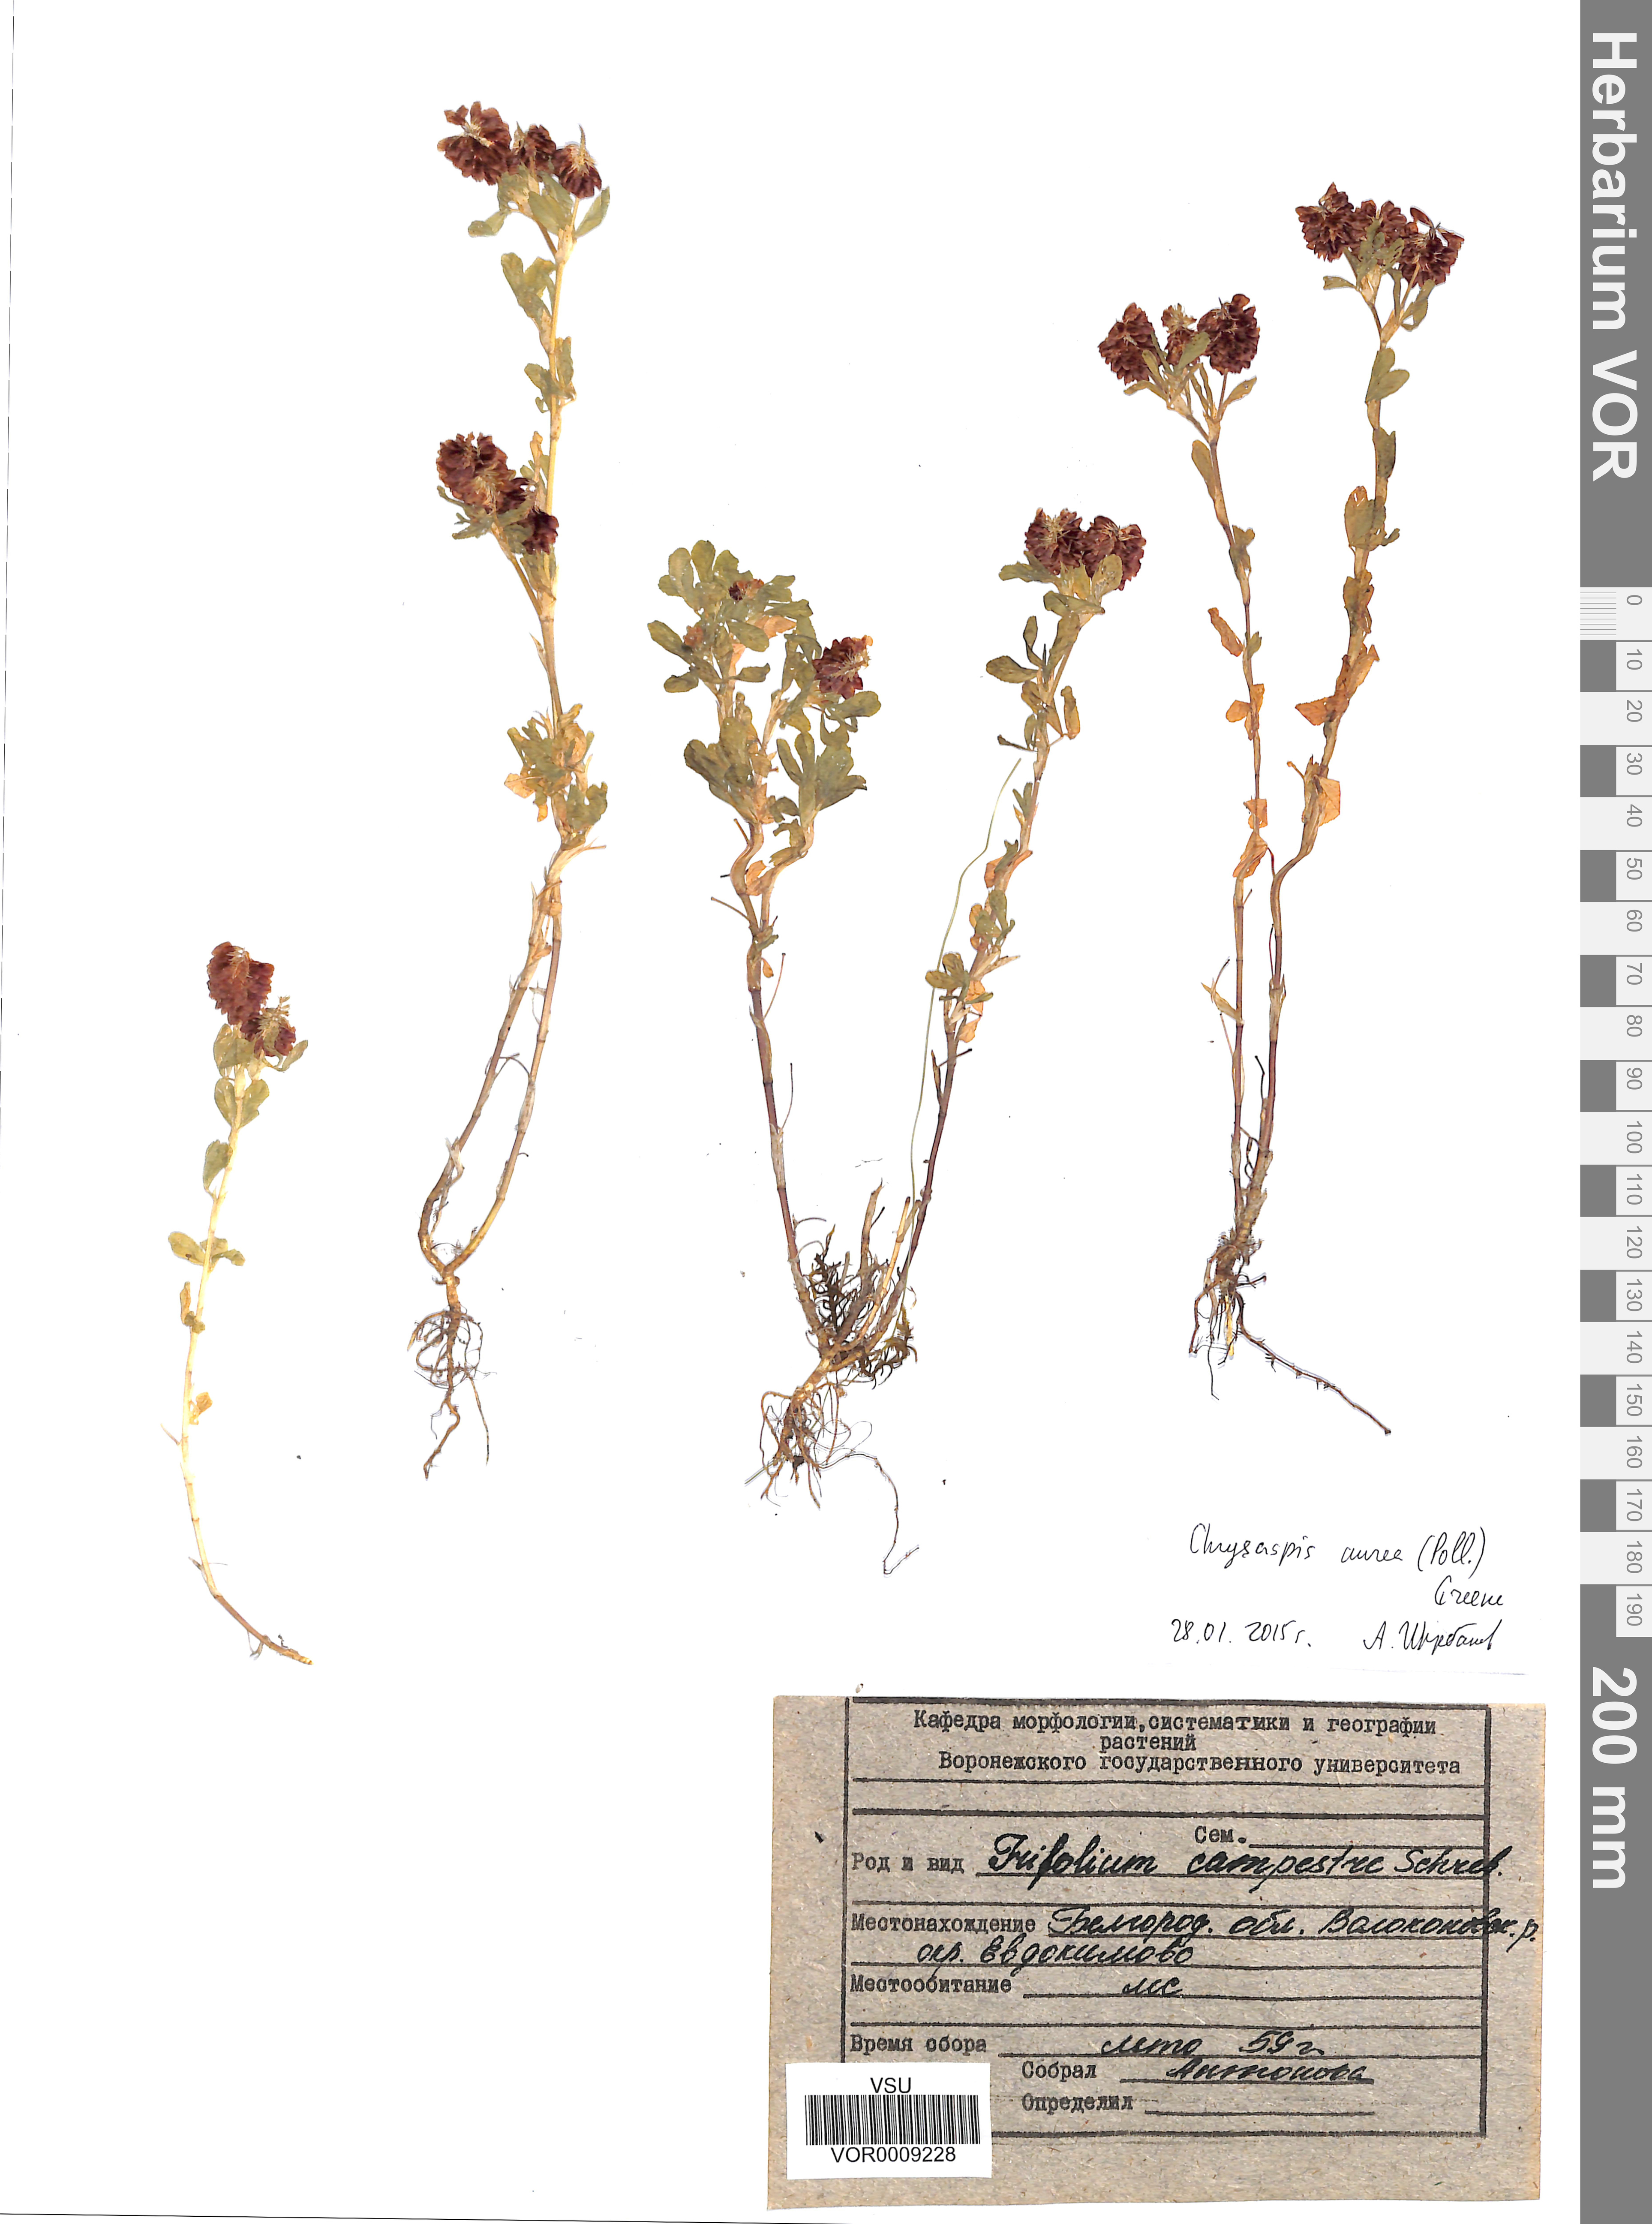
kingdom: Plantae
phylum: Tracheophyta
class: Magnoliopsida
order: Fabales
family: Fabaceae
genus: Trifolium
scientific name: Trifolium aureum
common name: Golden clover
